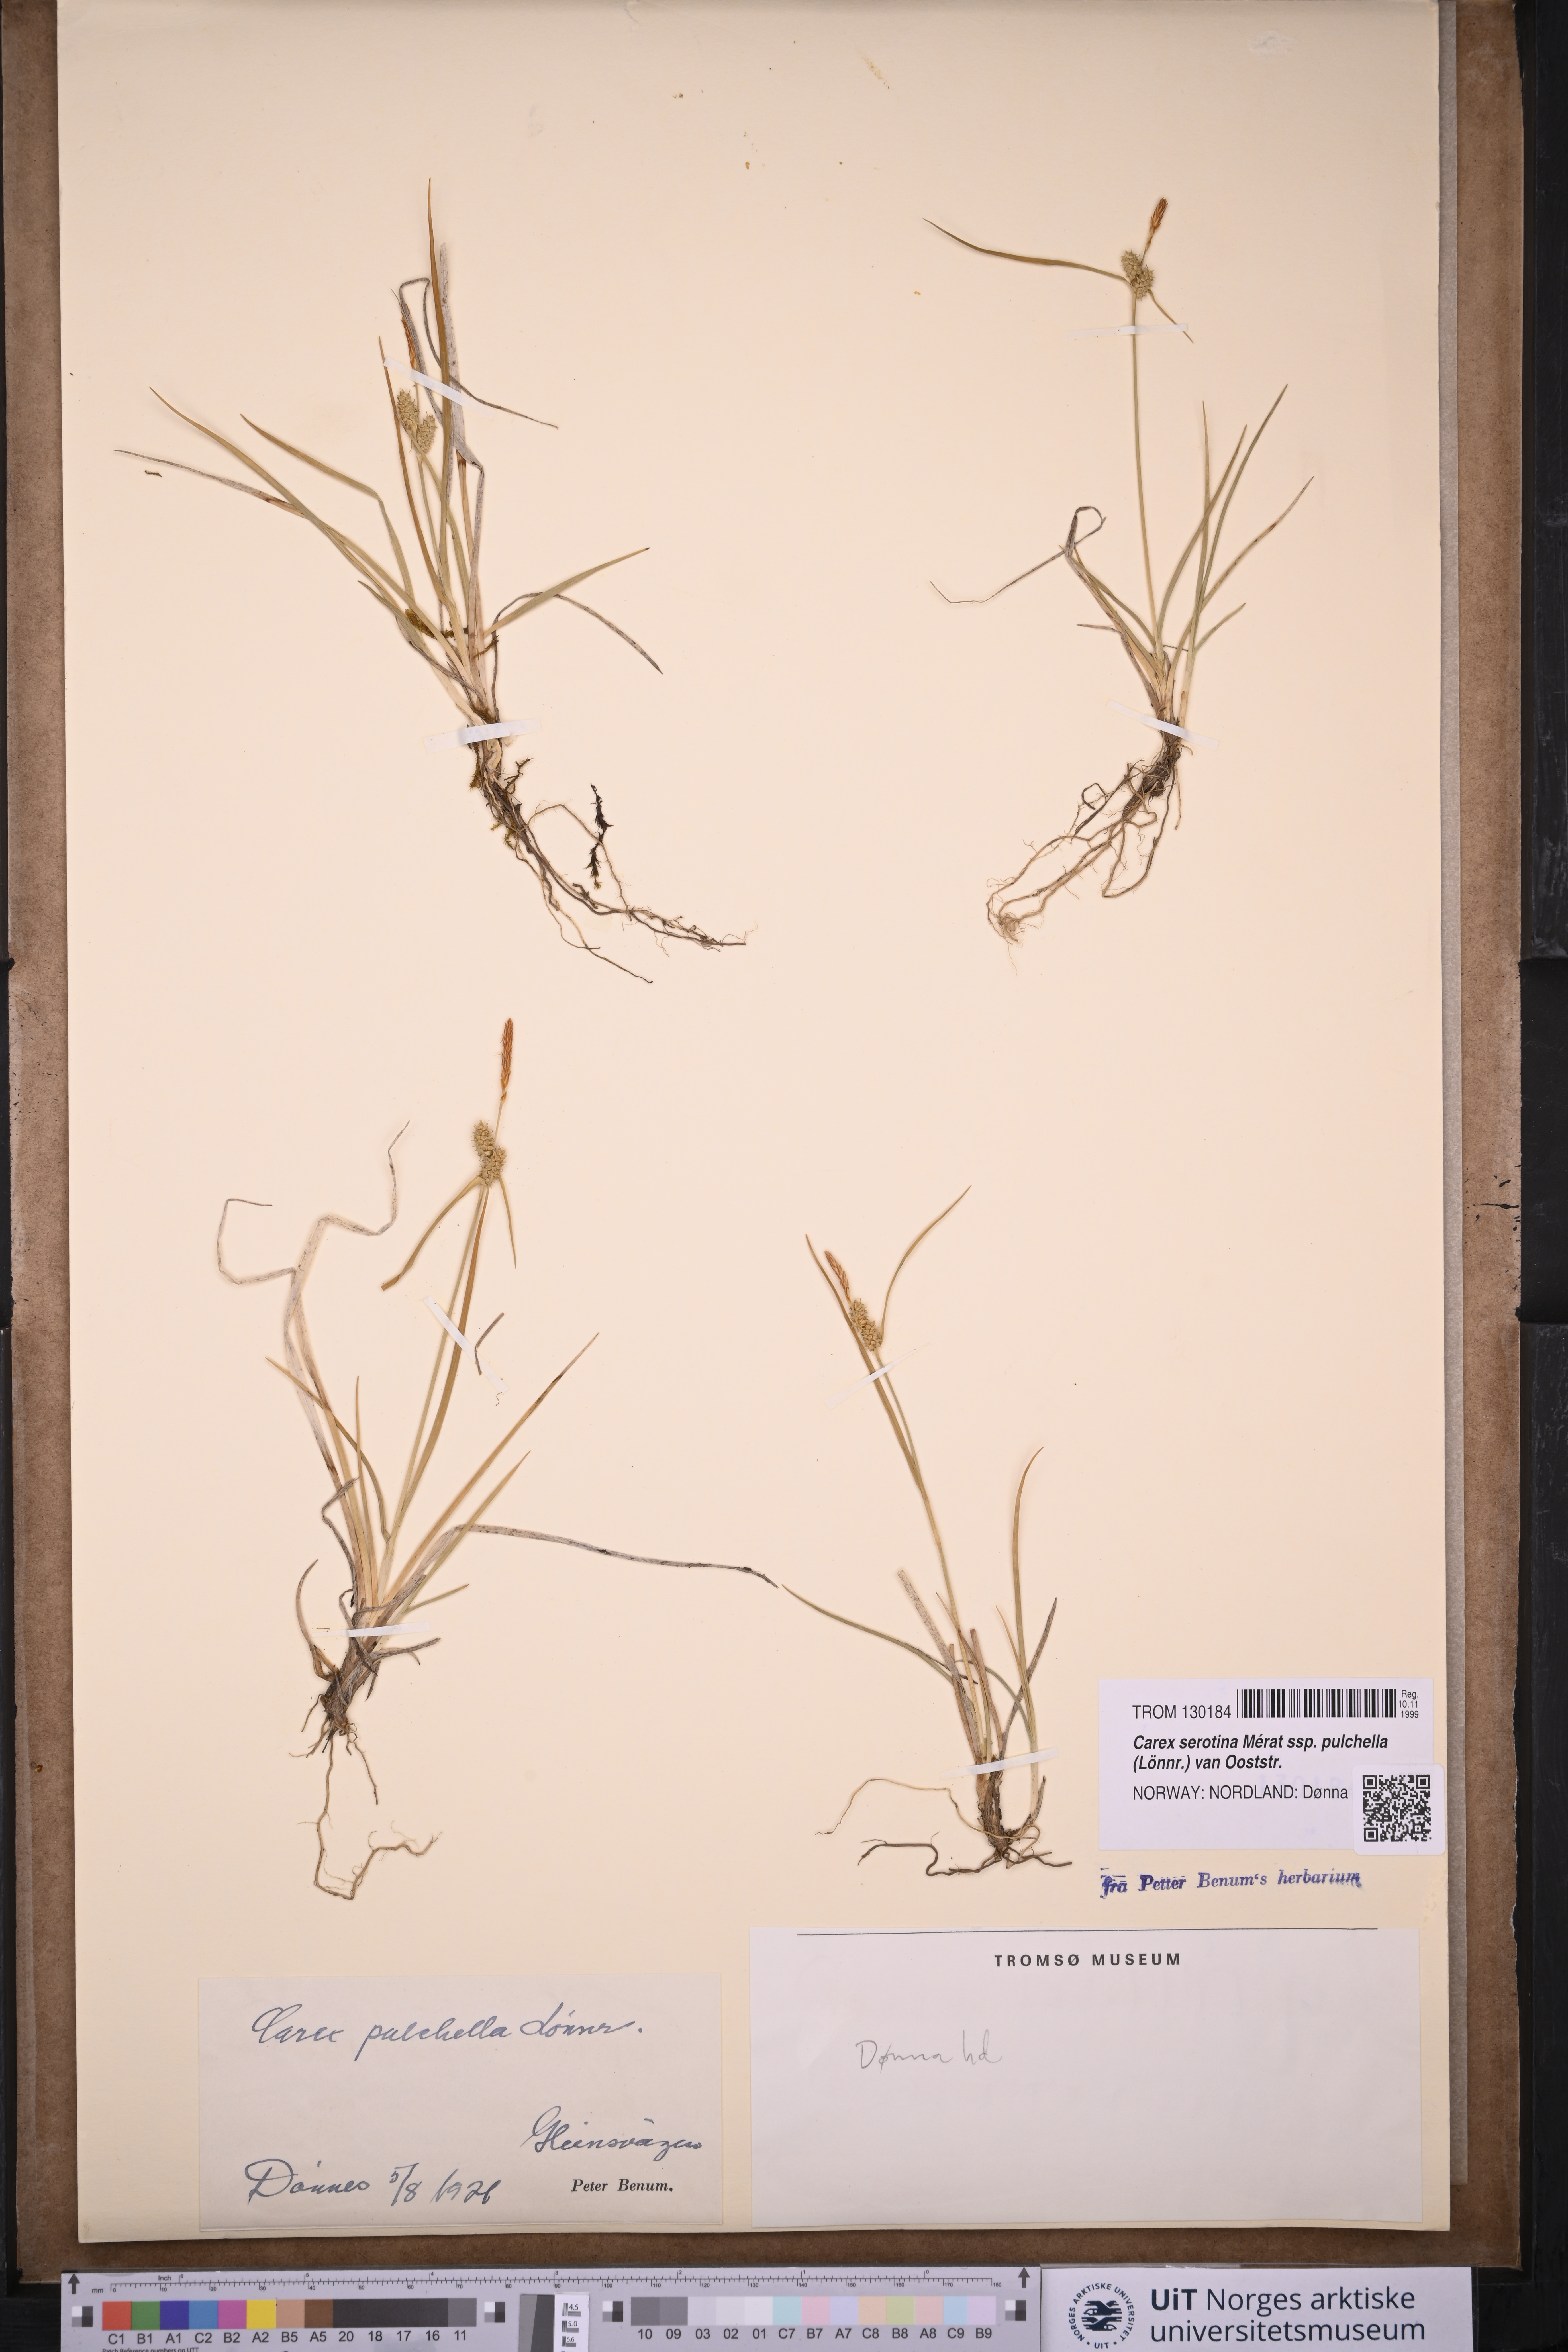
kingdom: Plantae
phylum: Tracheophyta
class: Liliopsida
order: Poales
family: Cyperaceae
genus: Carex
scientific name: Carex oederi
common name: Common & small-fruited yellow-sedge
